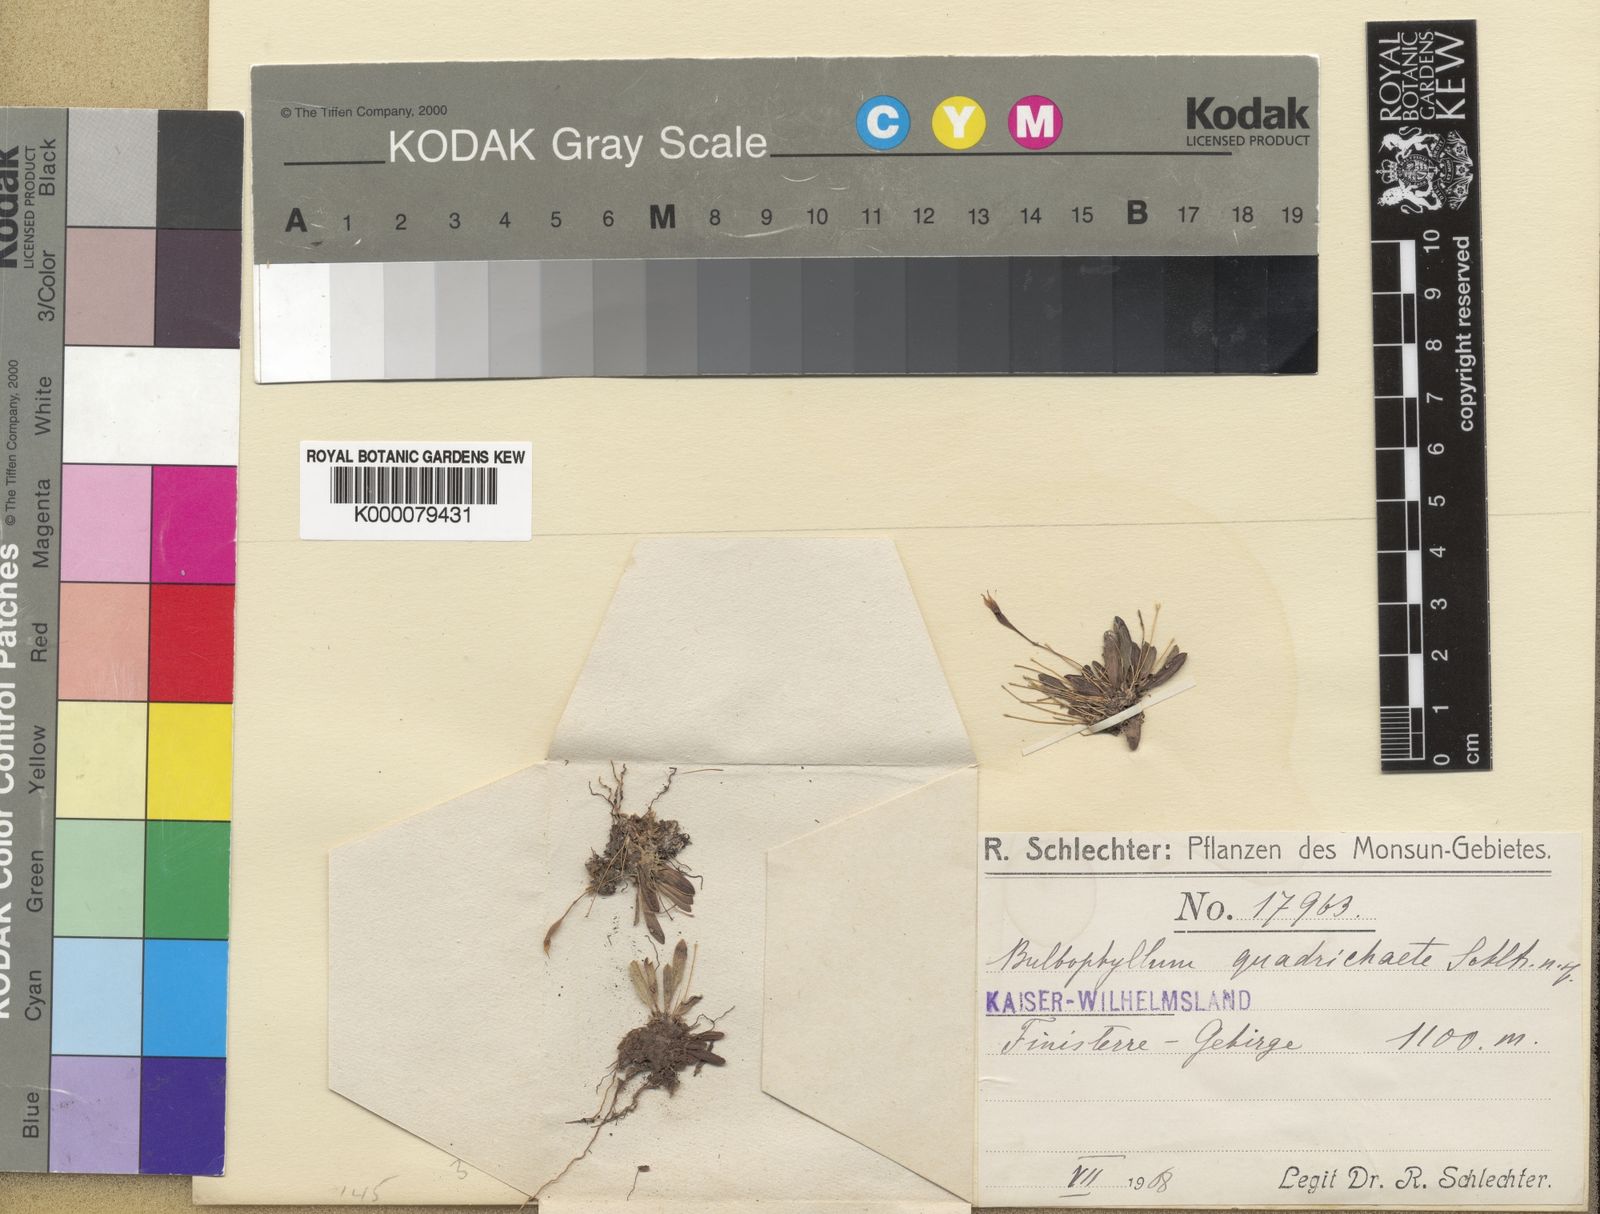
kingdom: Plantae
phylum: Tracheophyta
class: Liliopsida
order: Asparagales
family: Orchidaceae
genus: Bulbophyllum
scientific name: Bulbophyllum quadrichaete
